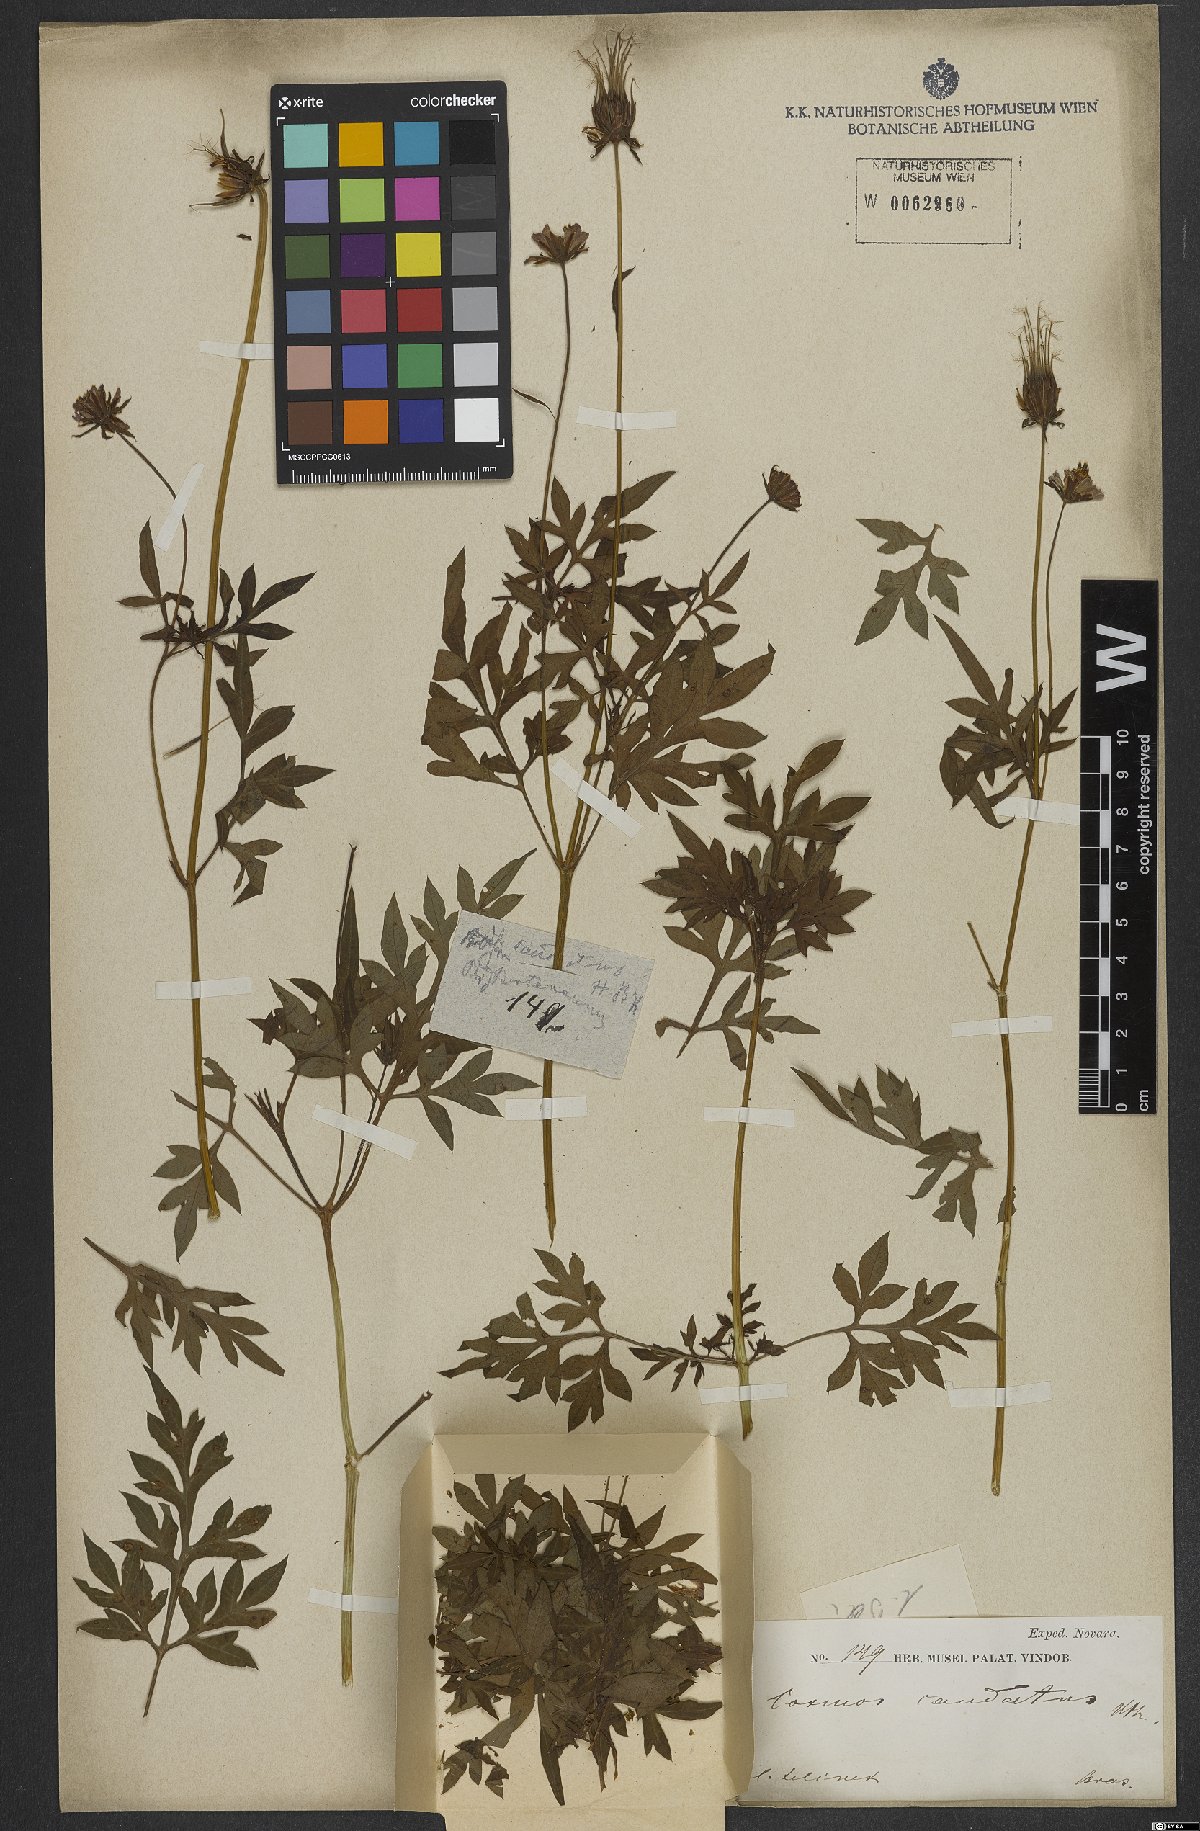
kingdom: Plantae
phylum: Tracheophyta
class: Magnoliopsida
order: Asterales
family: Asteraceae
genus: Cosmos
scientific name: Cosmos caudatus
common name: Wild cosmos
